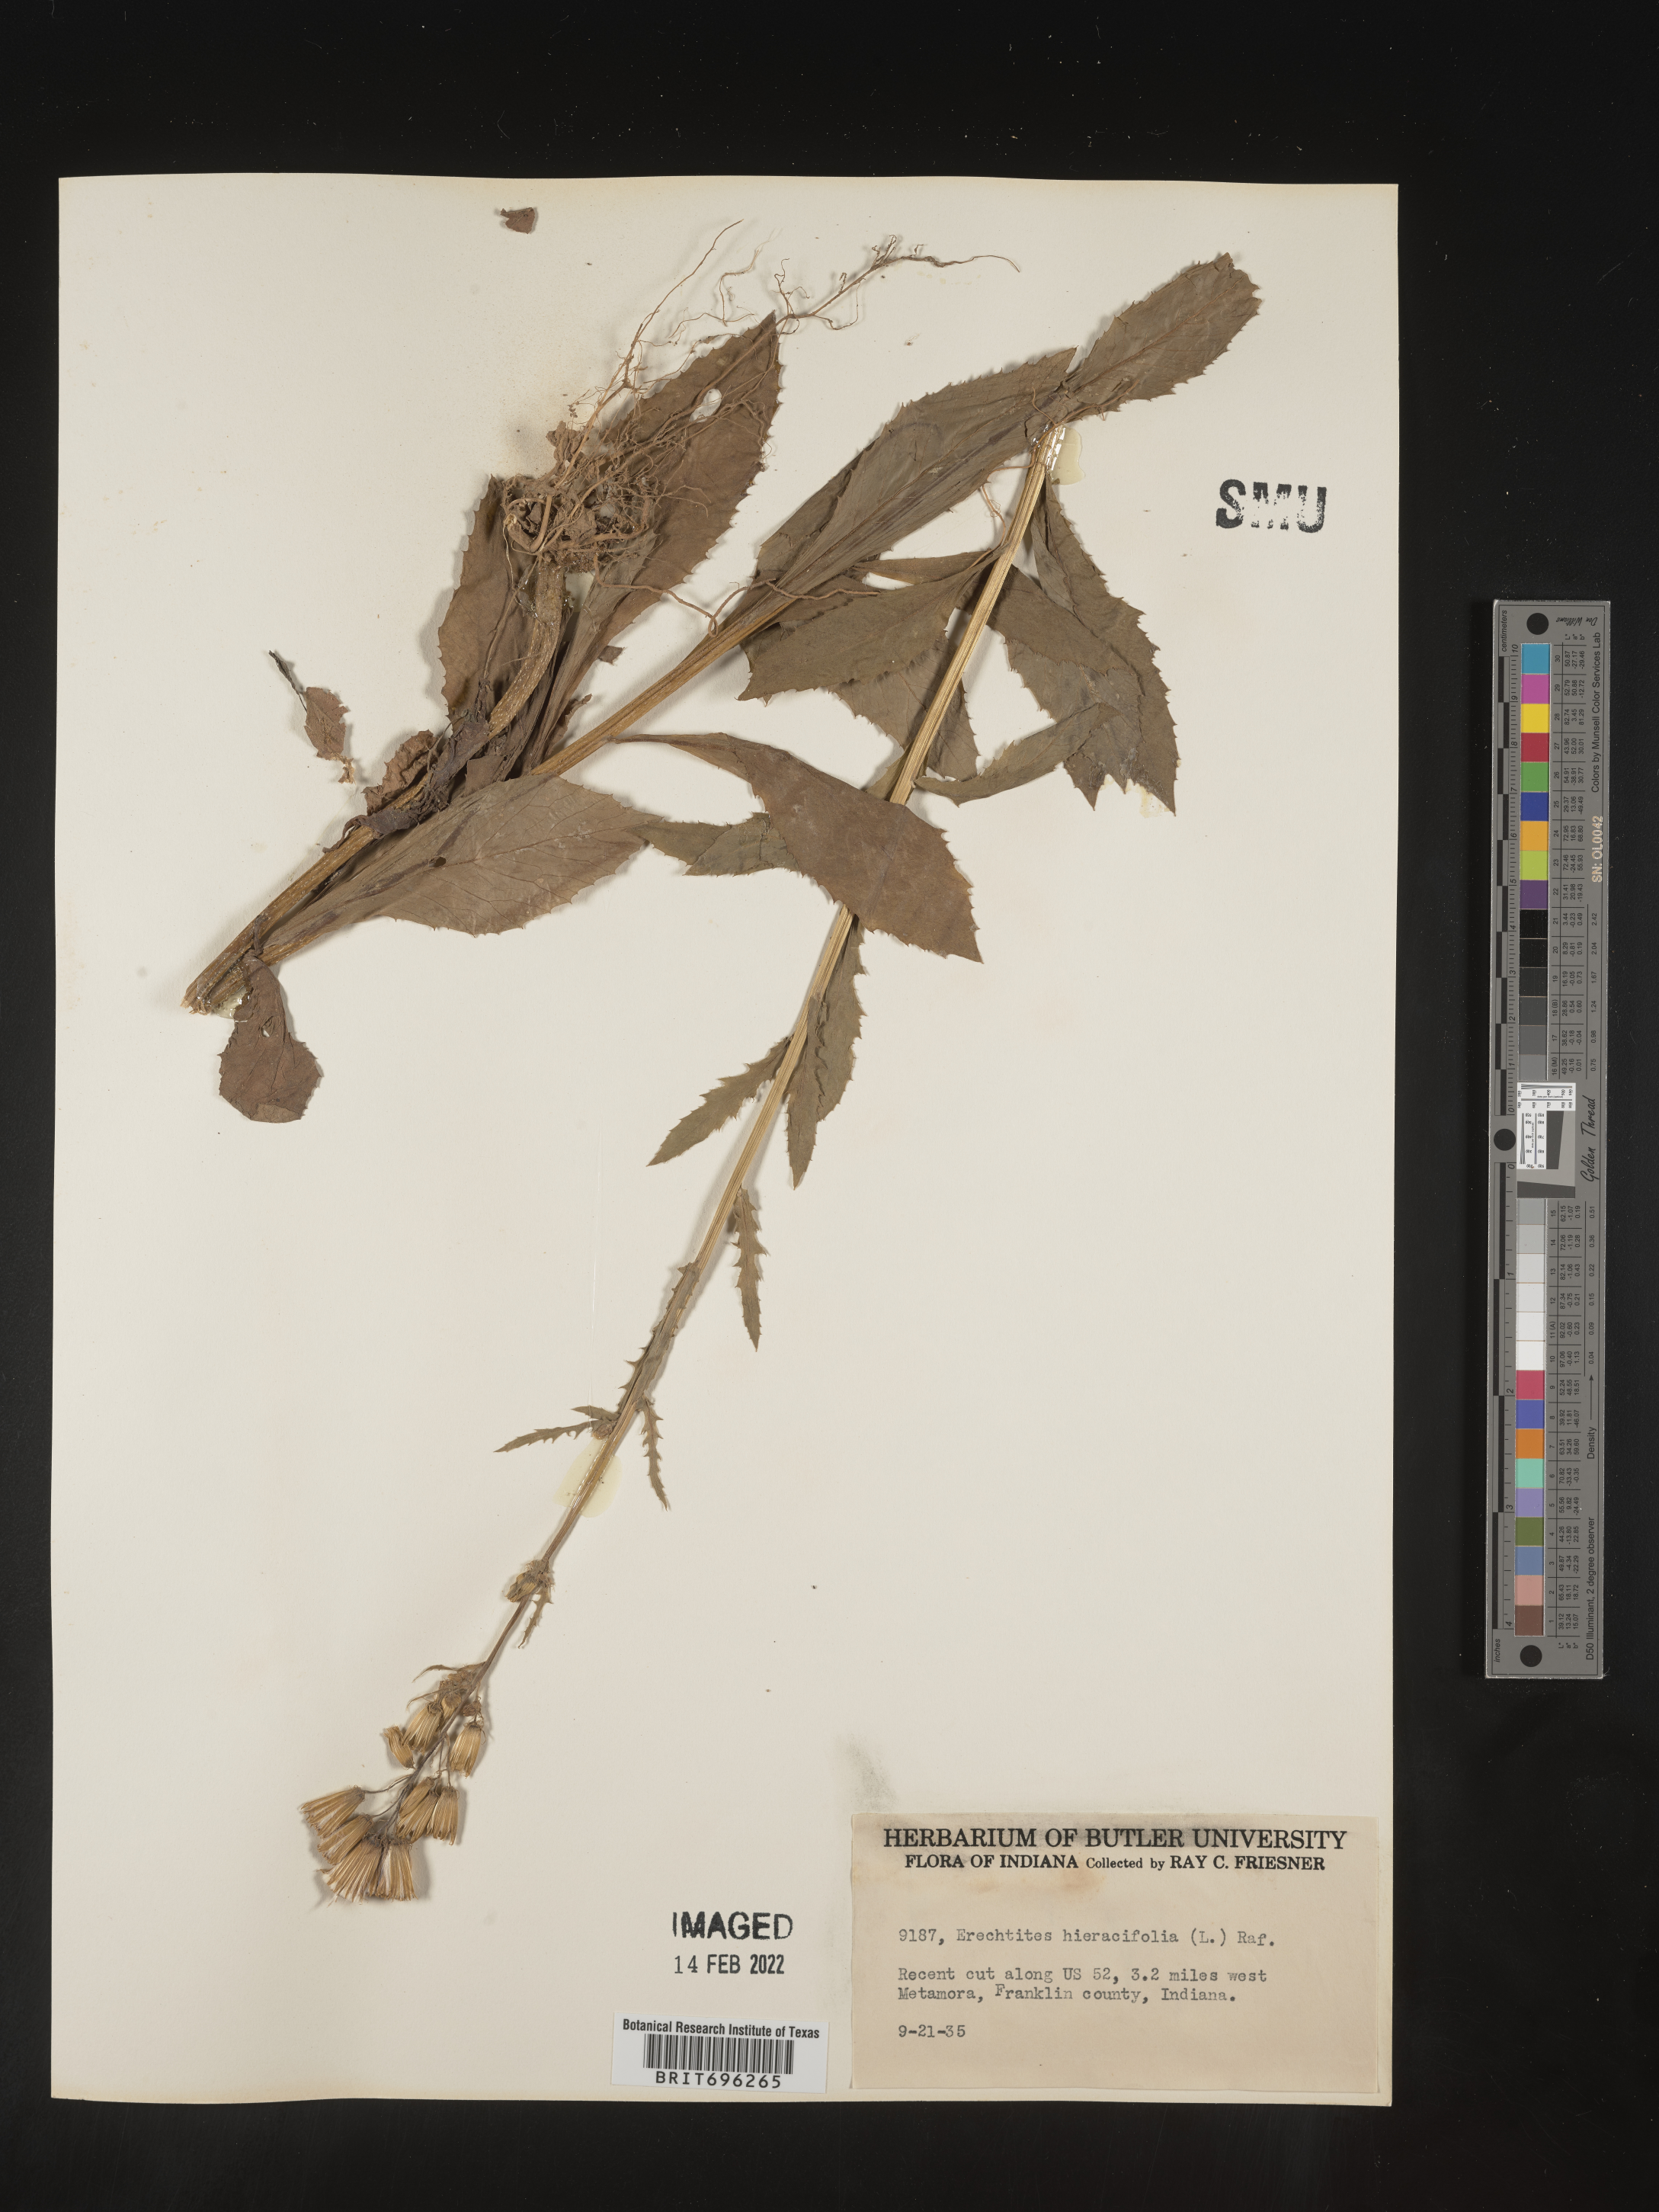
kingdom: Plantae
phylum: Tracheophyta
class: Magnoliopsida
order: Asterales
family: Asteraceae
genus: Erechtites
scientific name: Erechtites hieraciifolius
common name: American burnweed
